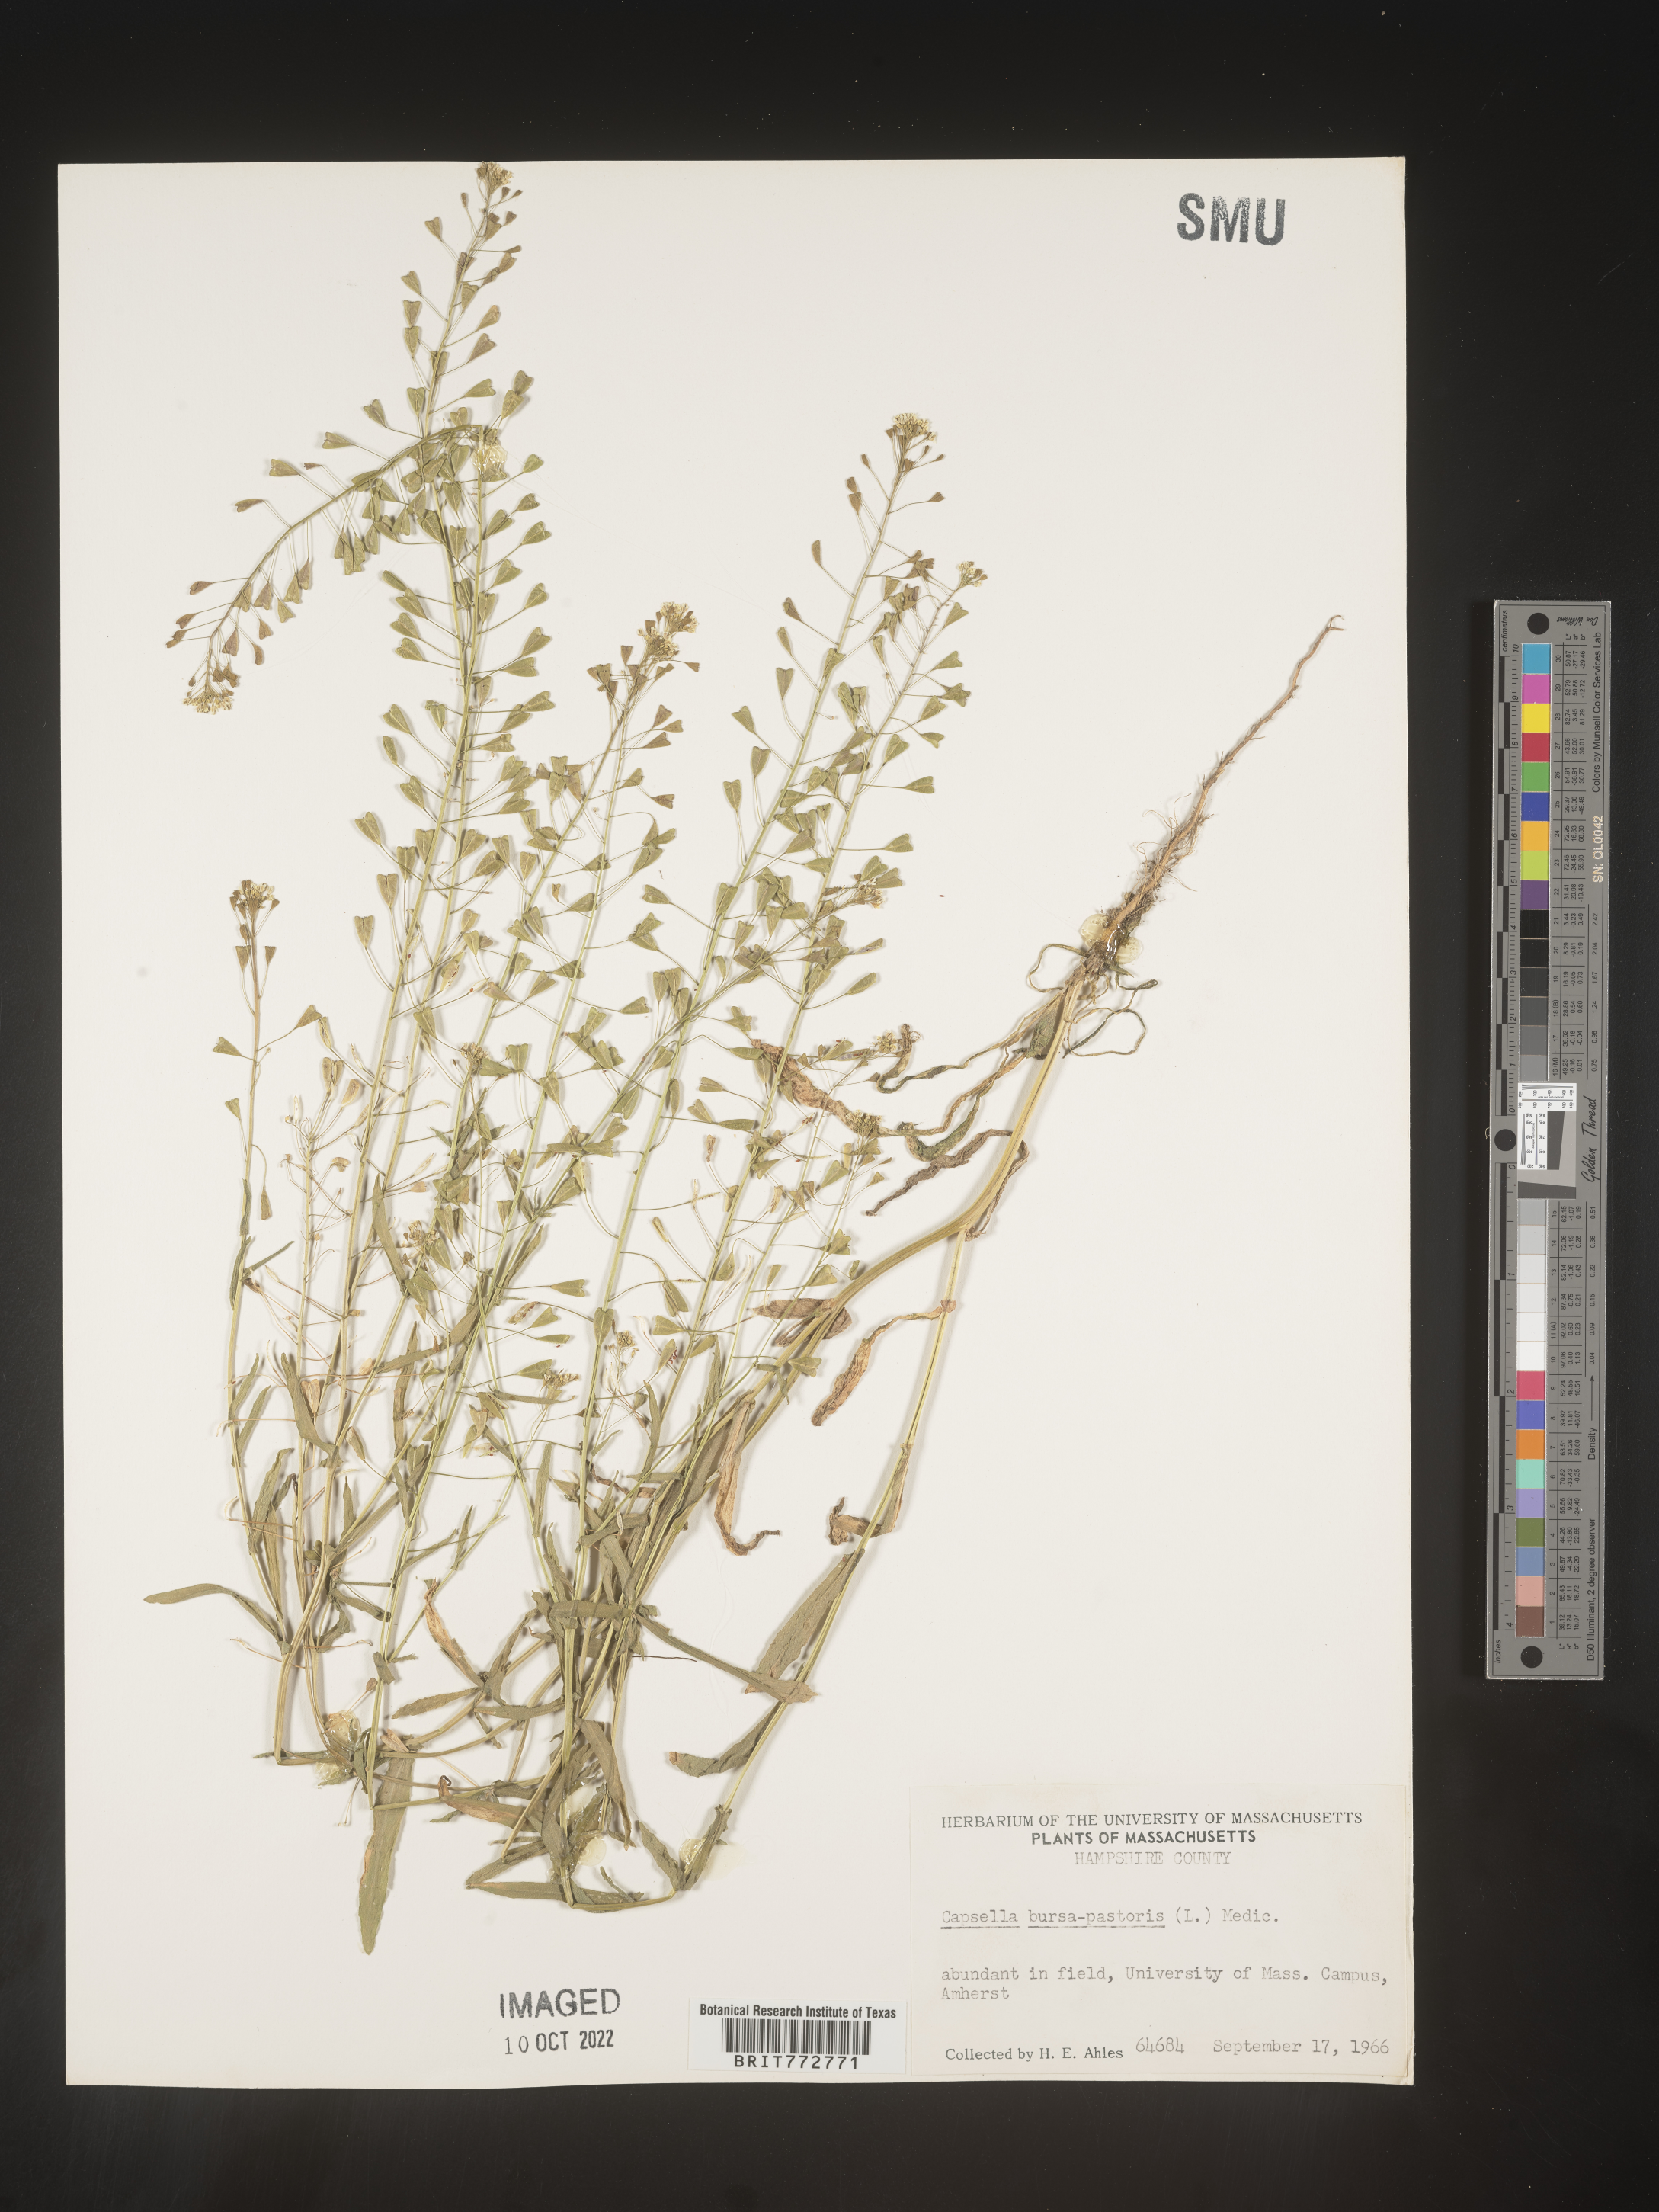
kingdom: Plantae
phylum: Tracheophyta
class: Magnoliopsida
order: Brassicales
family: Brassicaceae
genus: Capsella
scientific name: Capsella bursa-pastoris
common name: Shepherd's purse
